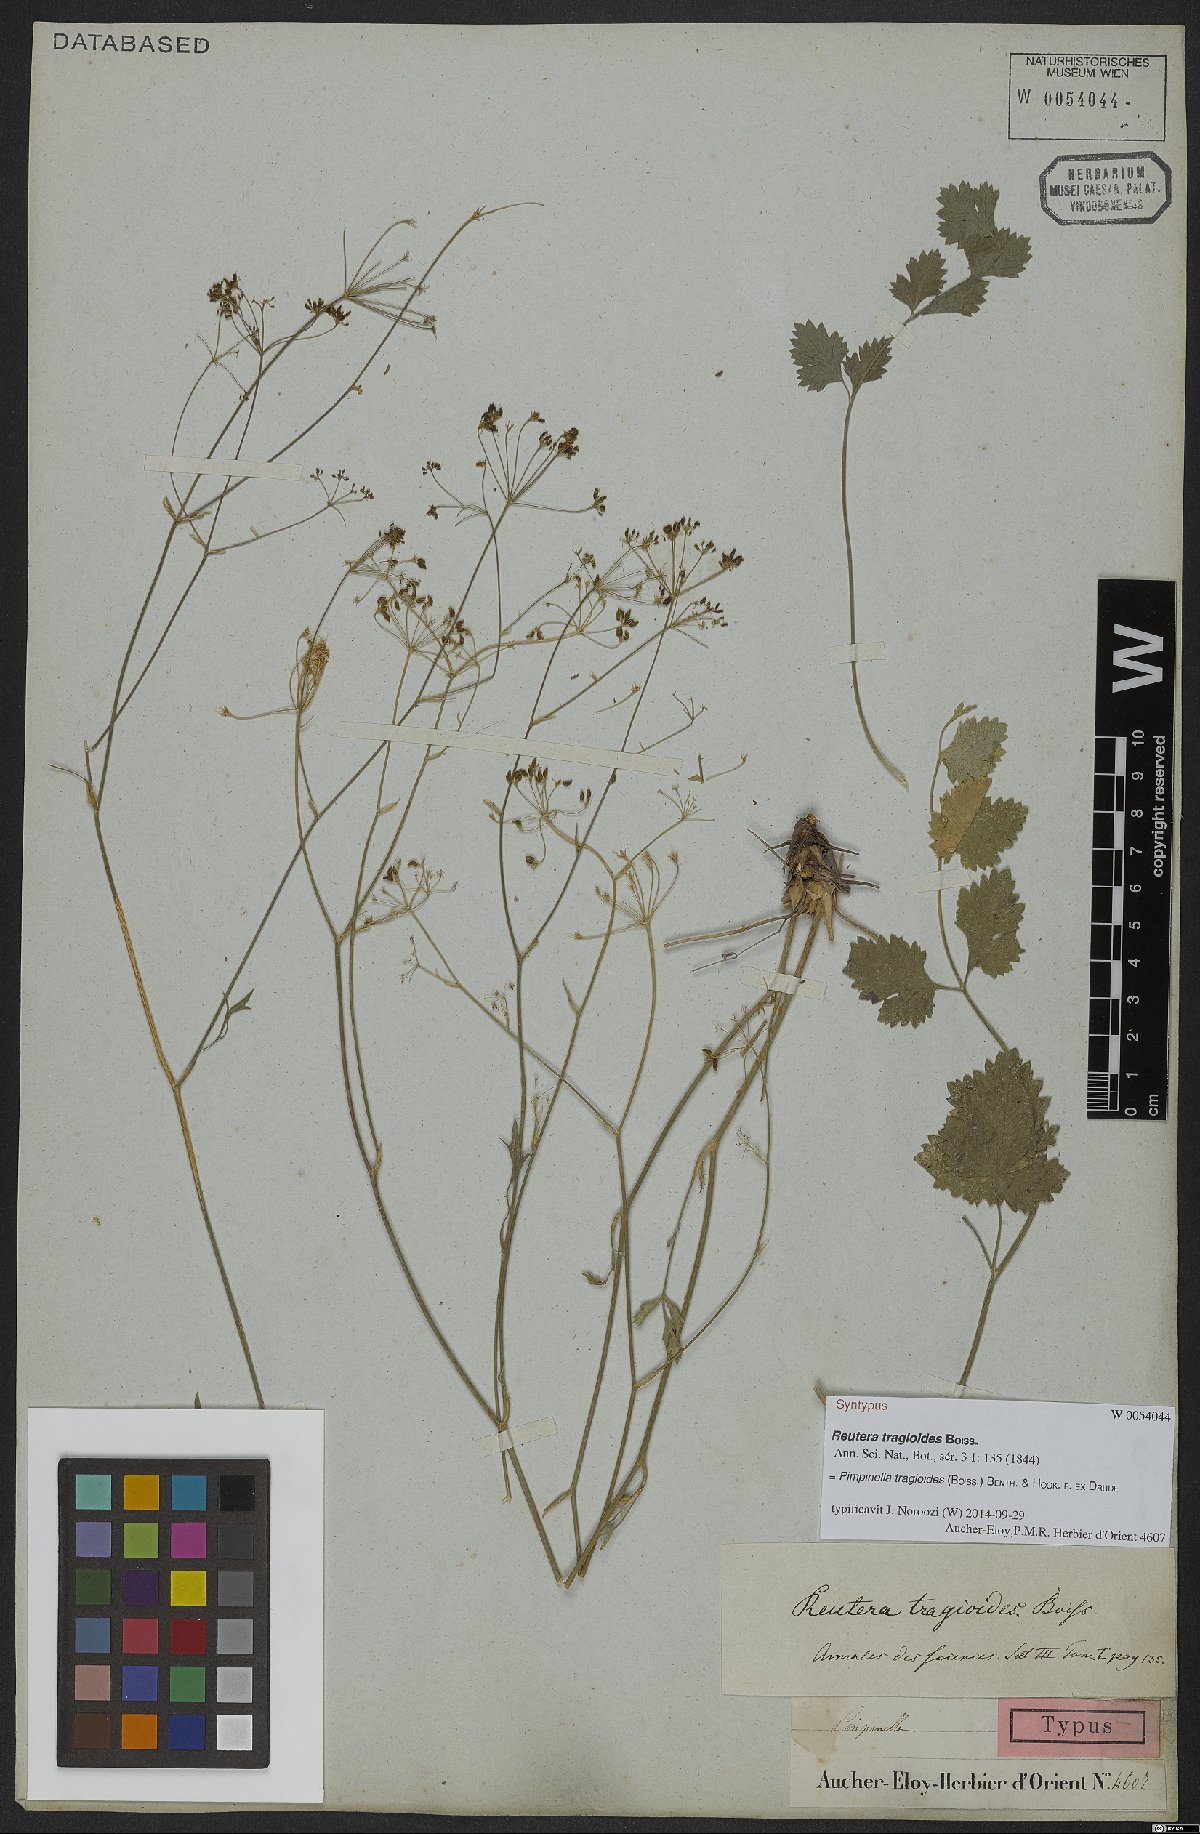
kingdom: Plantae
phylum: Tracheophyta
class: Magnoliopsida
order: Apiales
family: Apiaceae
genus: Pimpinella
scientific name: Pimpinella tragioides
